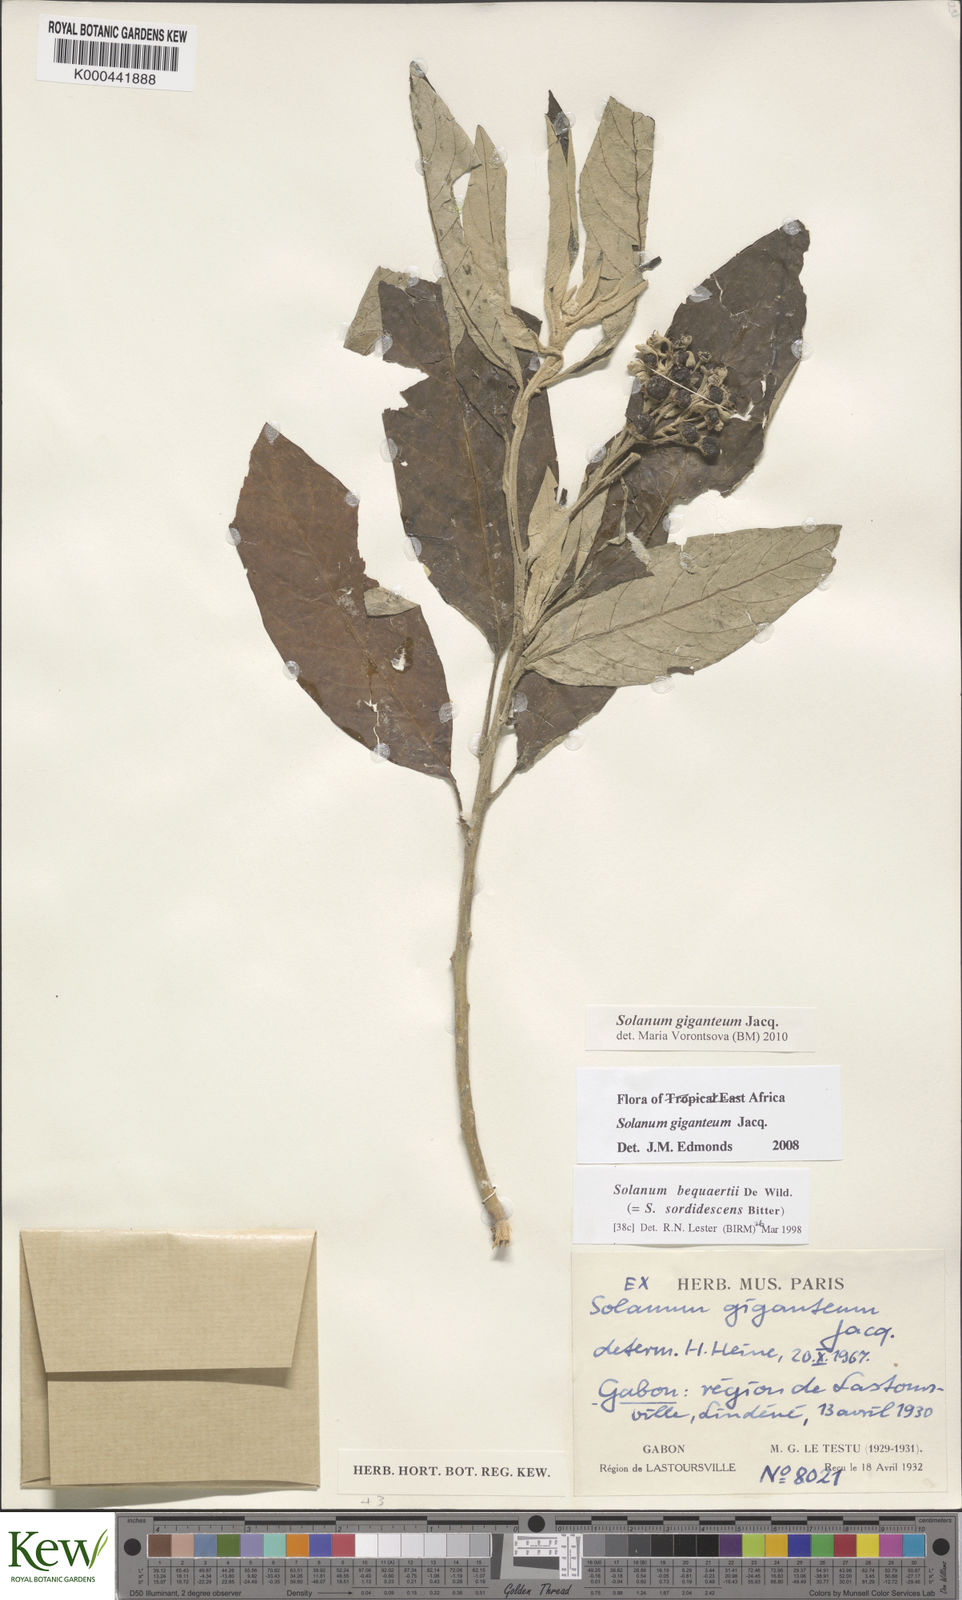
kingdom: Plantae
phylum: Tracheophyta
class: Magnoliopsida
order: Solanales
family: Solanaceae
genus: Solanum
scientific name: Solanum giganteum
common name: Healing-leaf-tree
